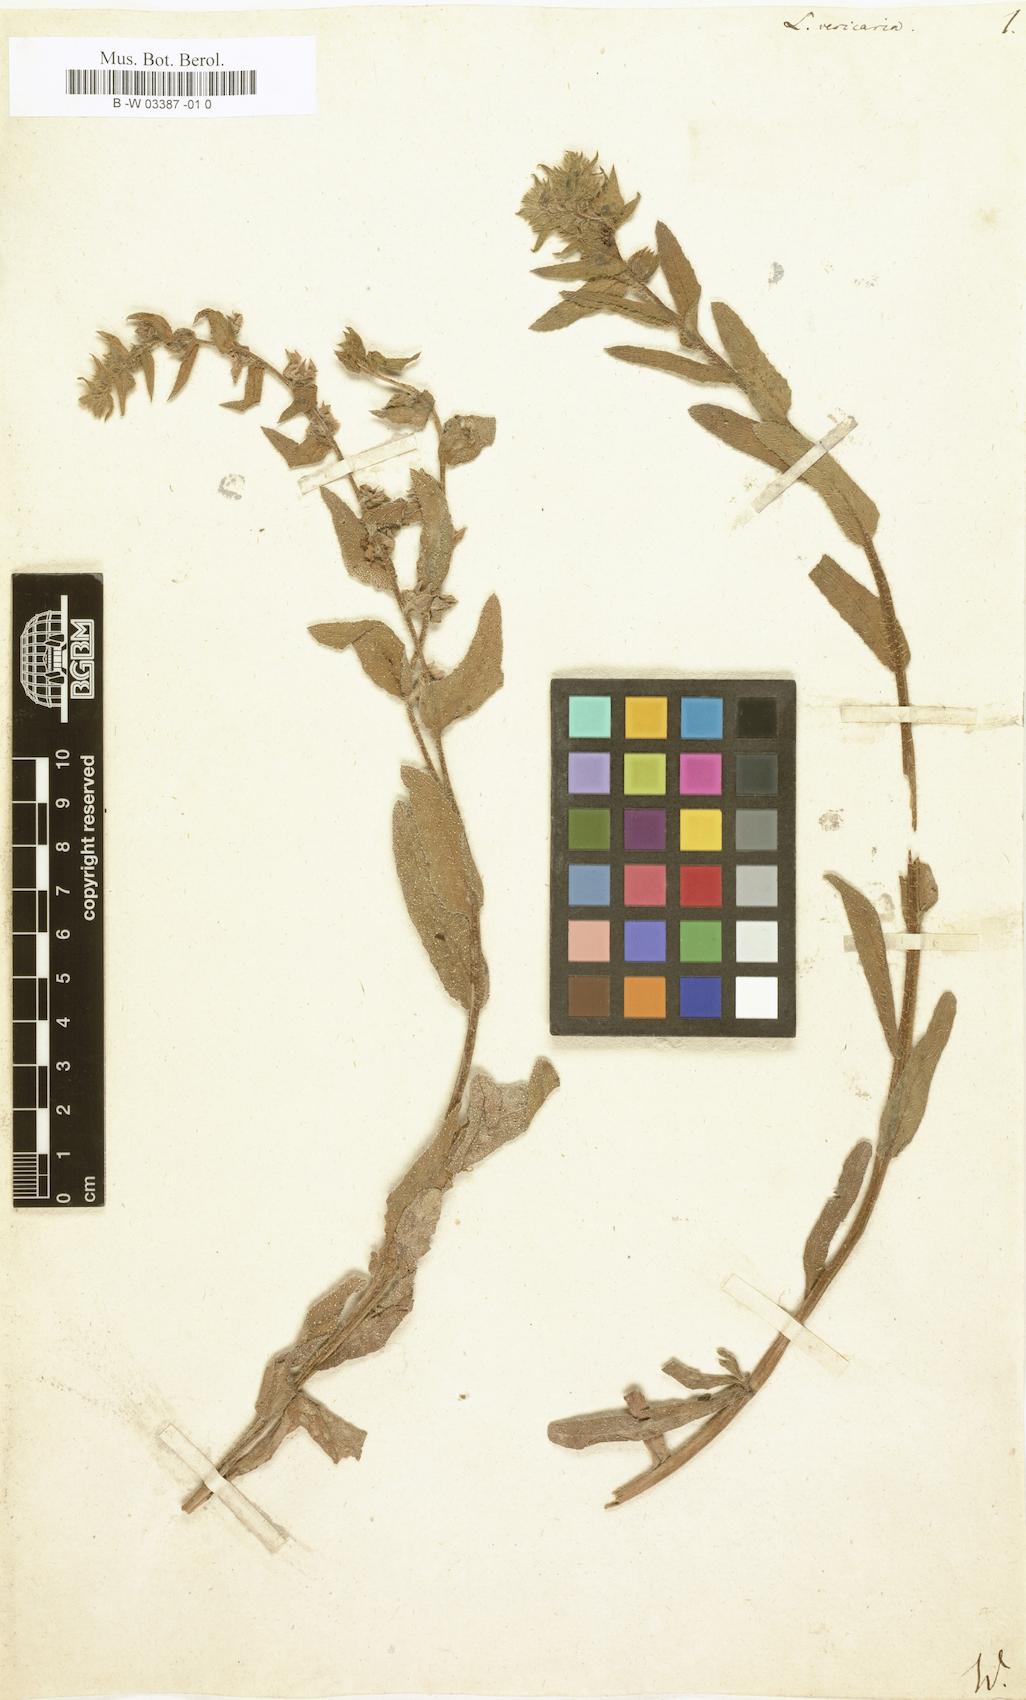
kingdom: Plantae
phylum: Tracheophyta
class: Magnoliopsida
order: Boraginales
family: Boraginaceae
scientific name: Boraginaceae
